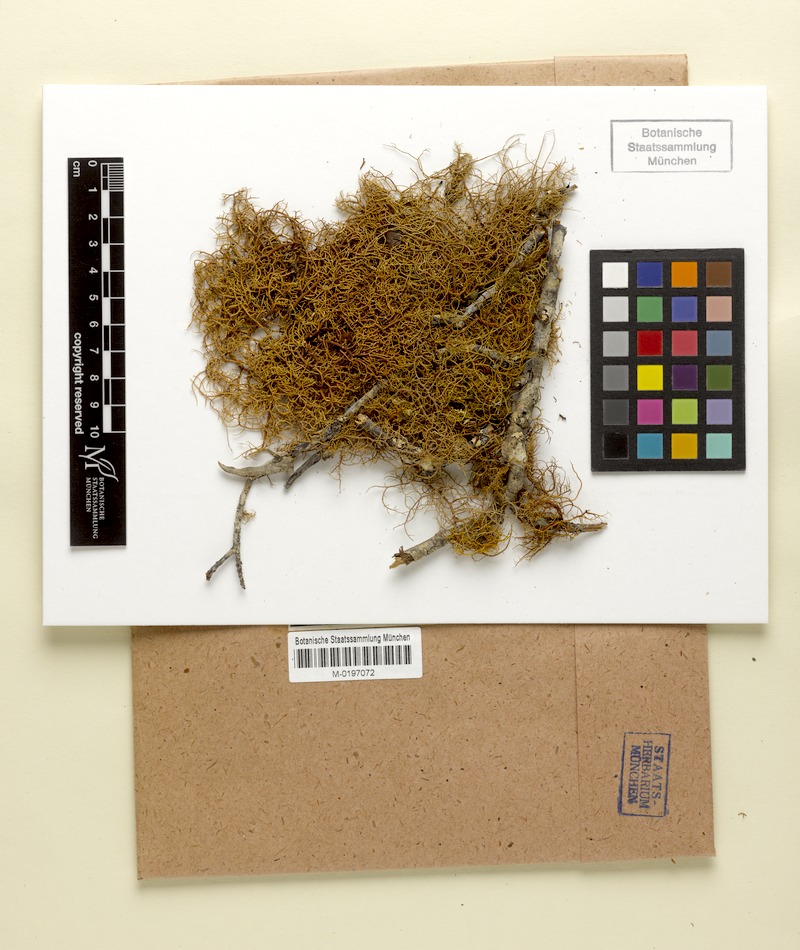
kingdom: Fungi
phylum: Ascomycota
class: Lecanoromycetes
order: Lecanorales
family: Parmeliaceae
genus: Usnea
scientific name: Usnea occidentalis
